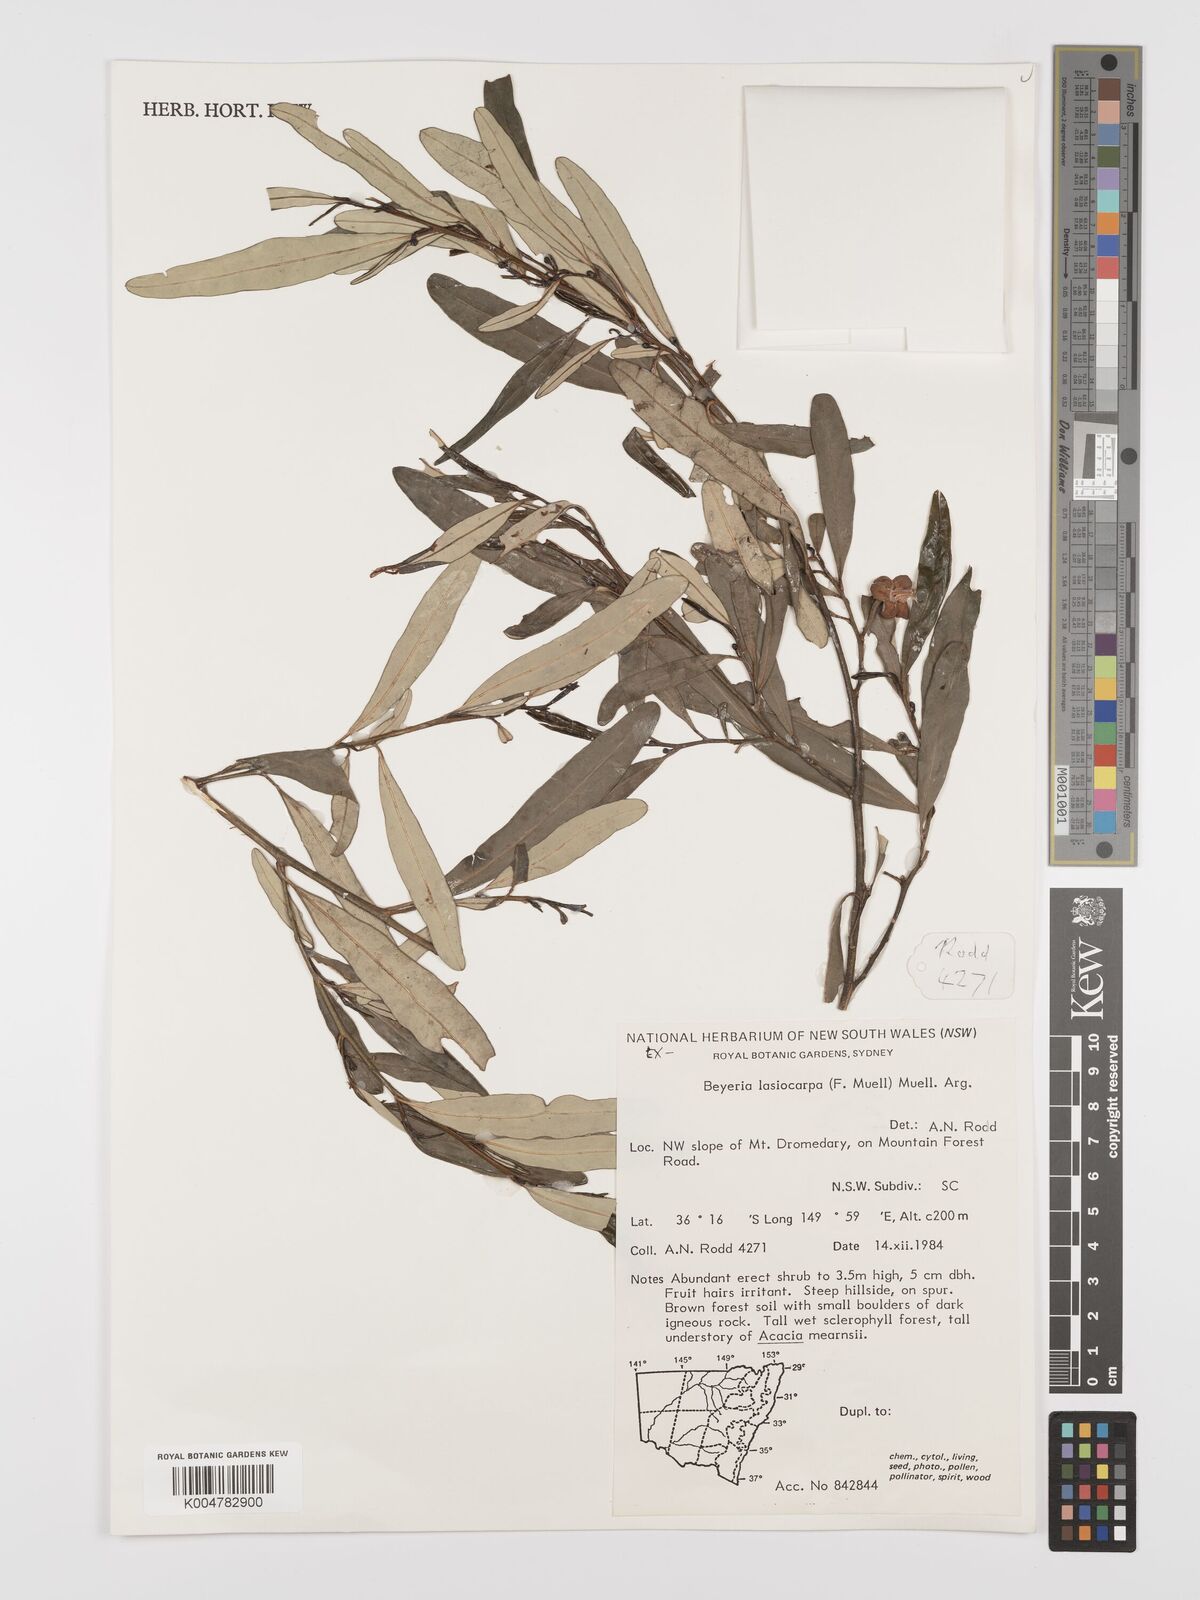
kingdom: Plantae
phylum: Tracheophyta
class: Magnoliopsida
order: Malpighiales
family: Euphorbiaceae
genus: Beyeria
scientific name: Beyeria lasiocarpa
